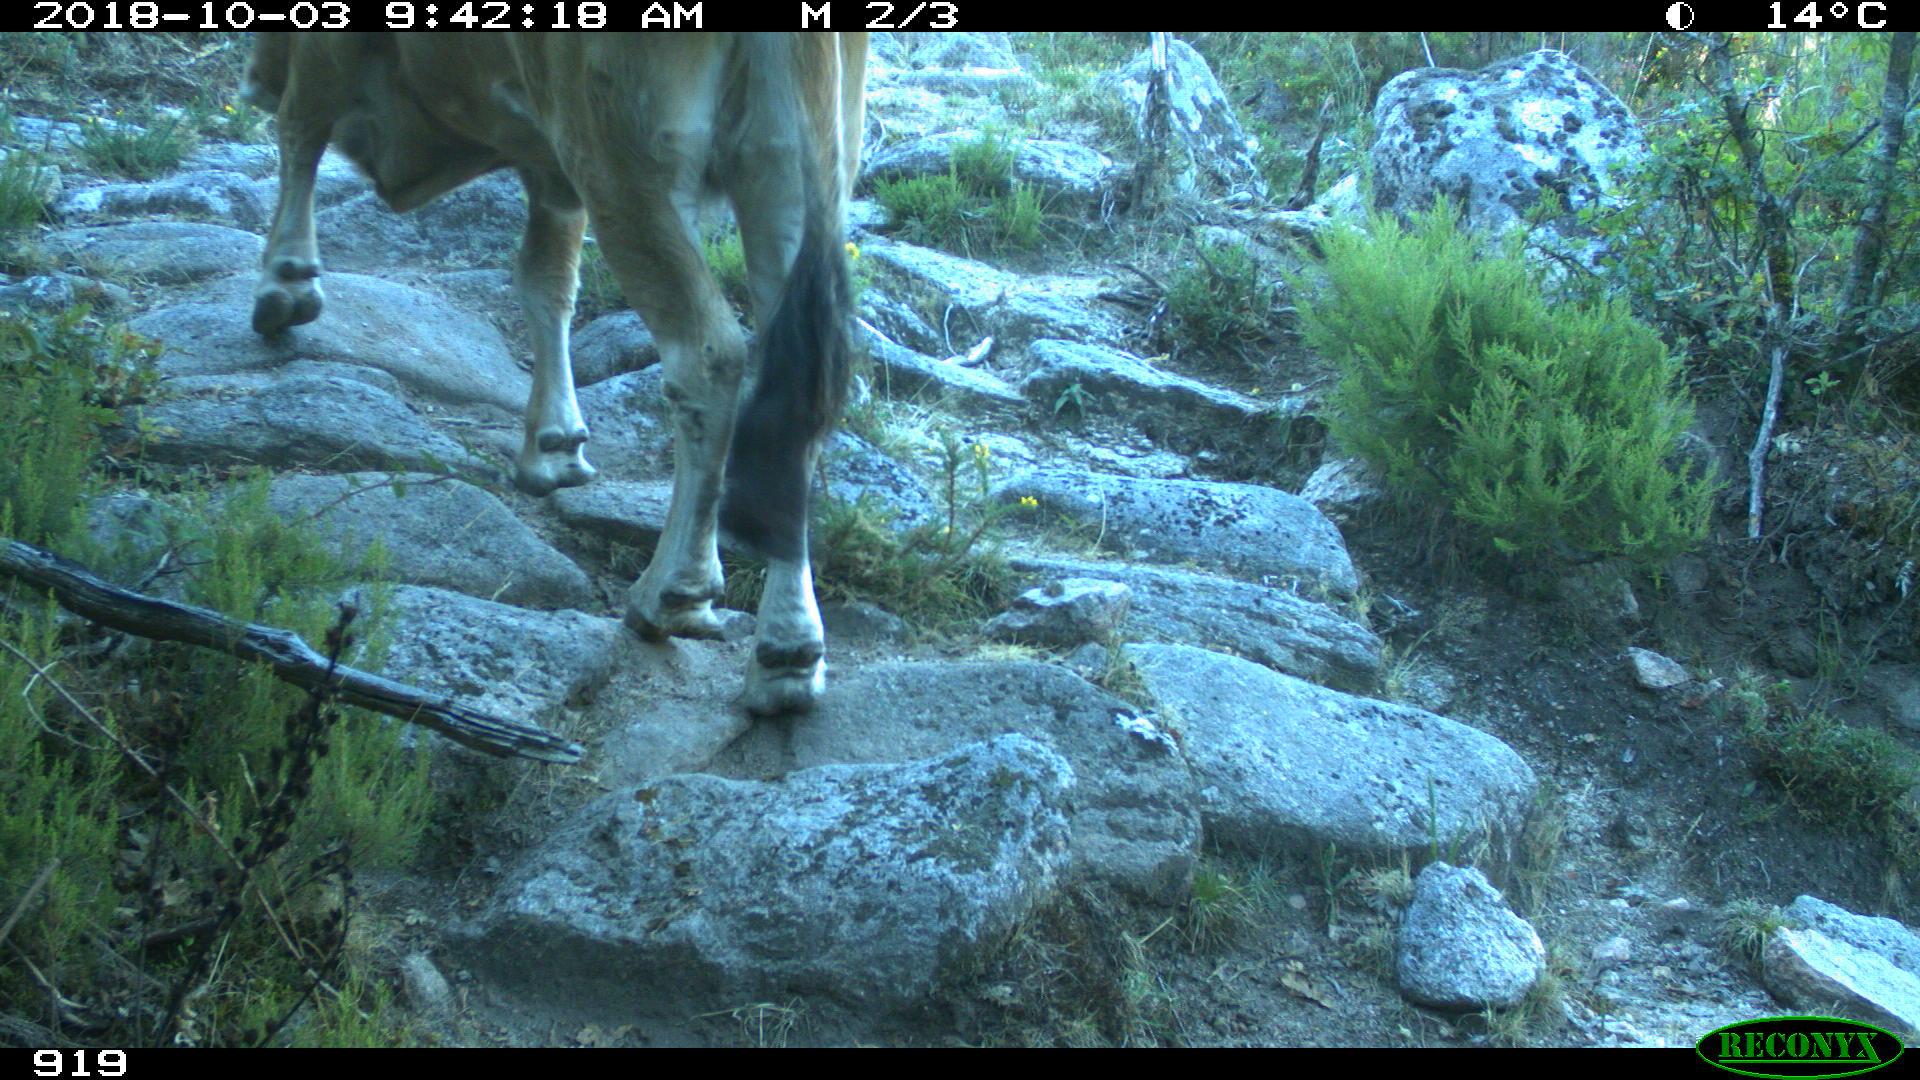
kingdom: Animalia
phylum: Chordata
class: Mammalia
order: Artiodactyla
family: Bovidae
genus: Bos
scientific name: Bos taurus
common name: Domesticated cattle
